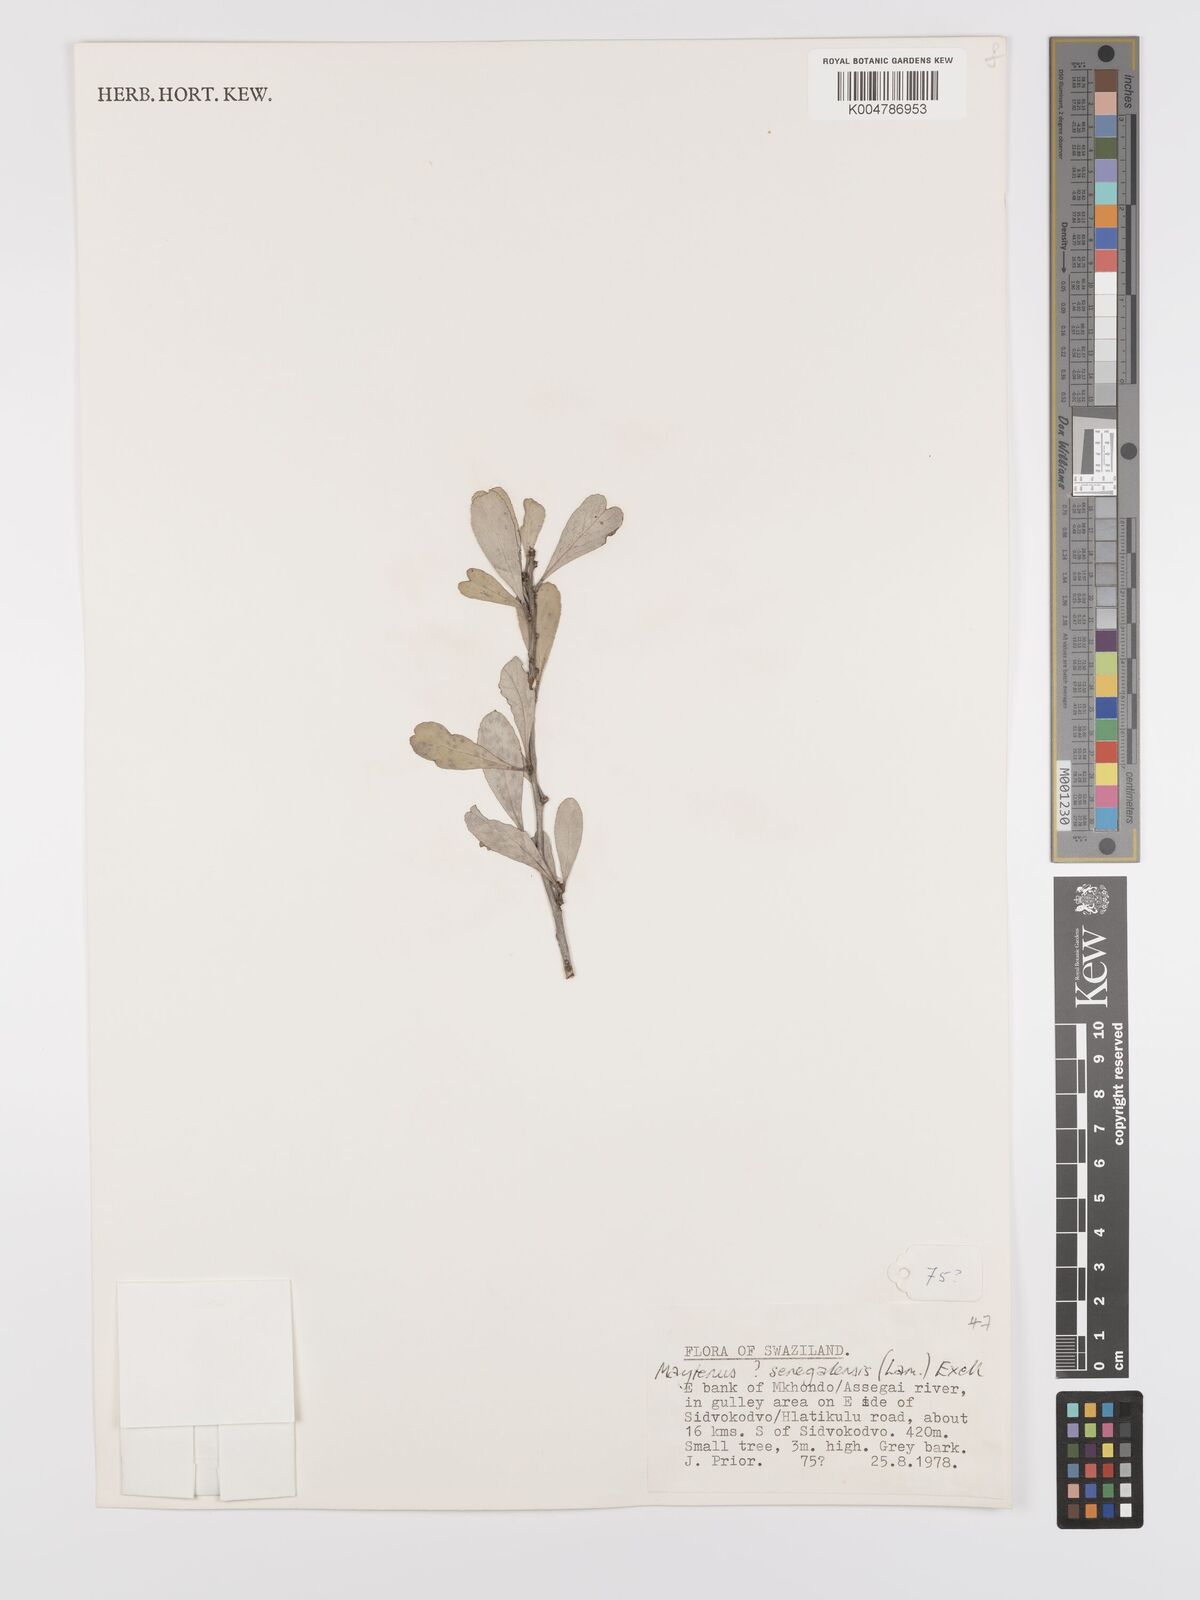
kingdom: Plantae
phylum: Tracheophyta
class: Magnoliopsida
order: Celastrales
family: Celastraceae
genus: Gymnosporia
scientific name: Gymnosporia senegalensis
